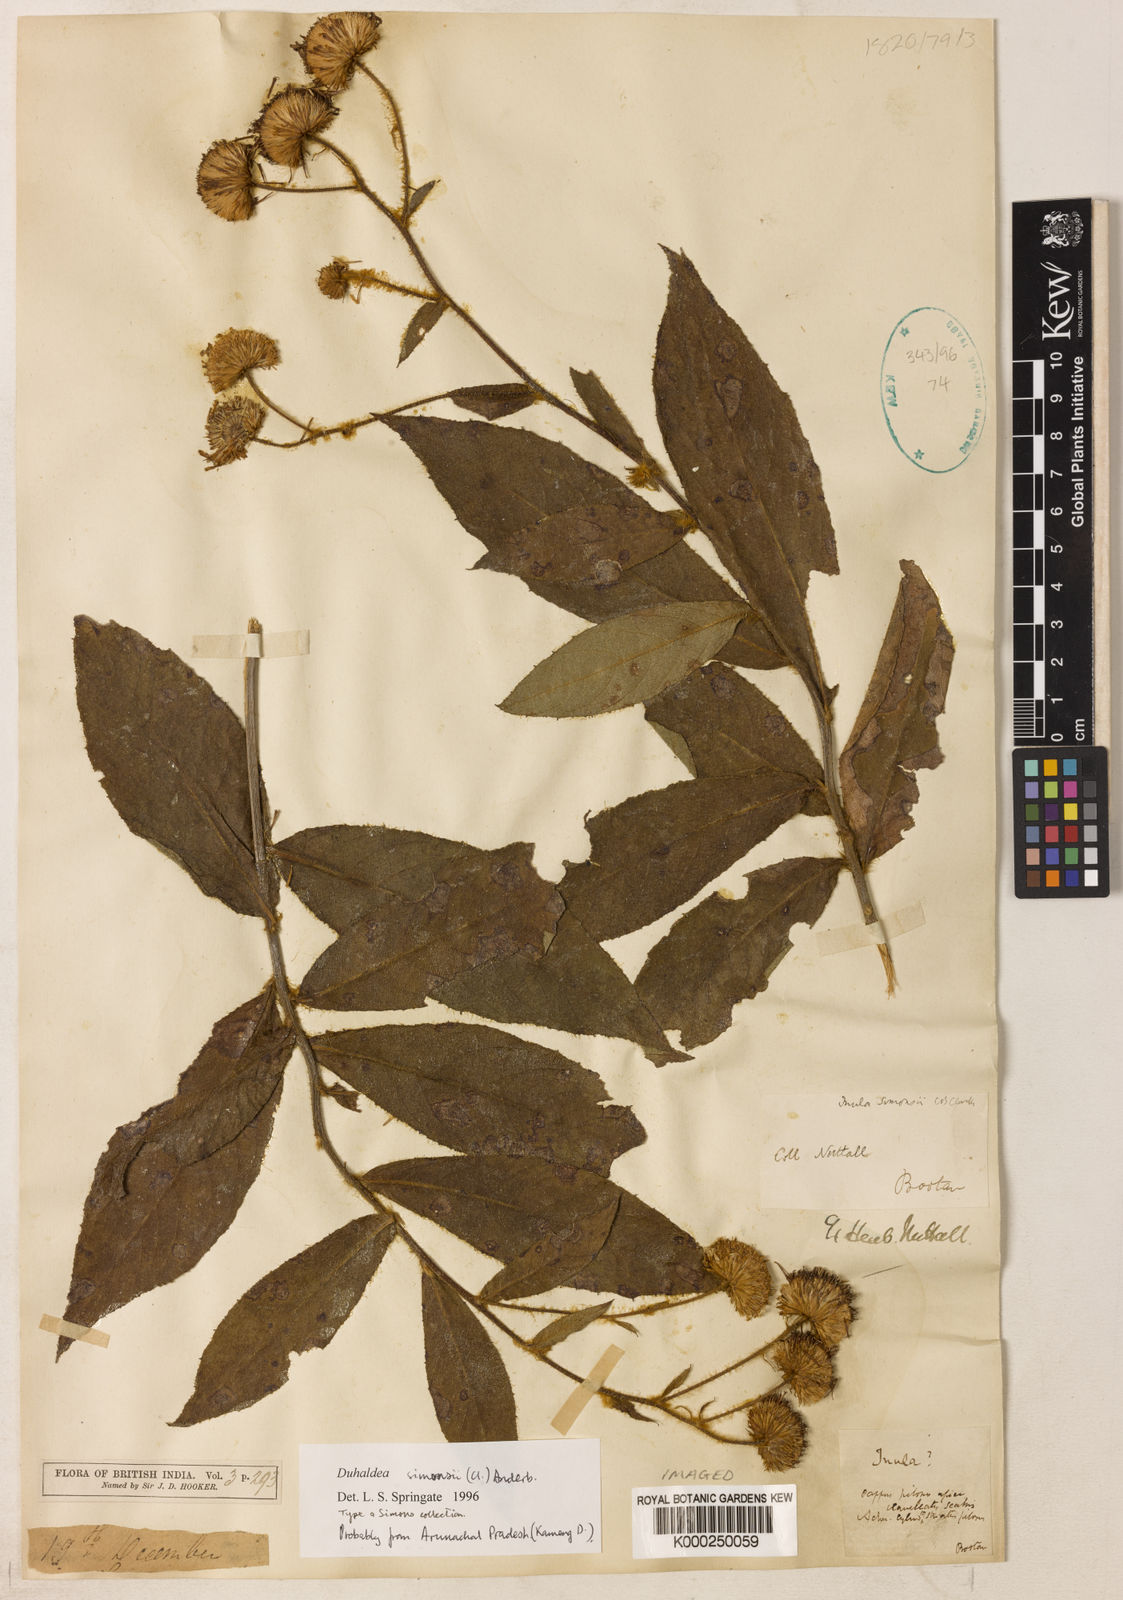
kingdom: Plantae
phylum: Tracheophyta
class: Magnoliopsida
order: Asterales
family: Asteraceae
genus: Duhaldea
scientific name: Duhaldea simonsii
